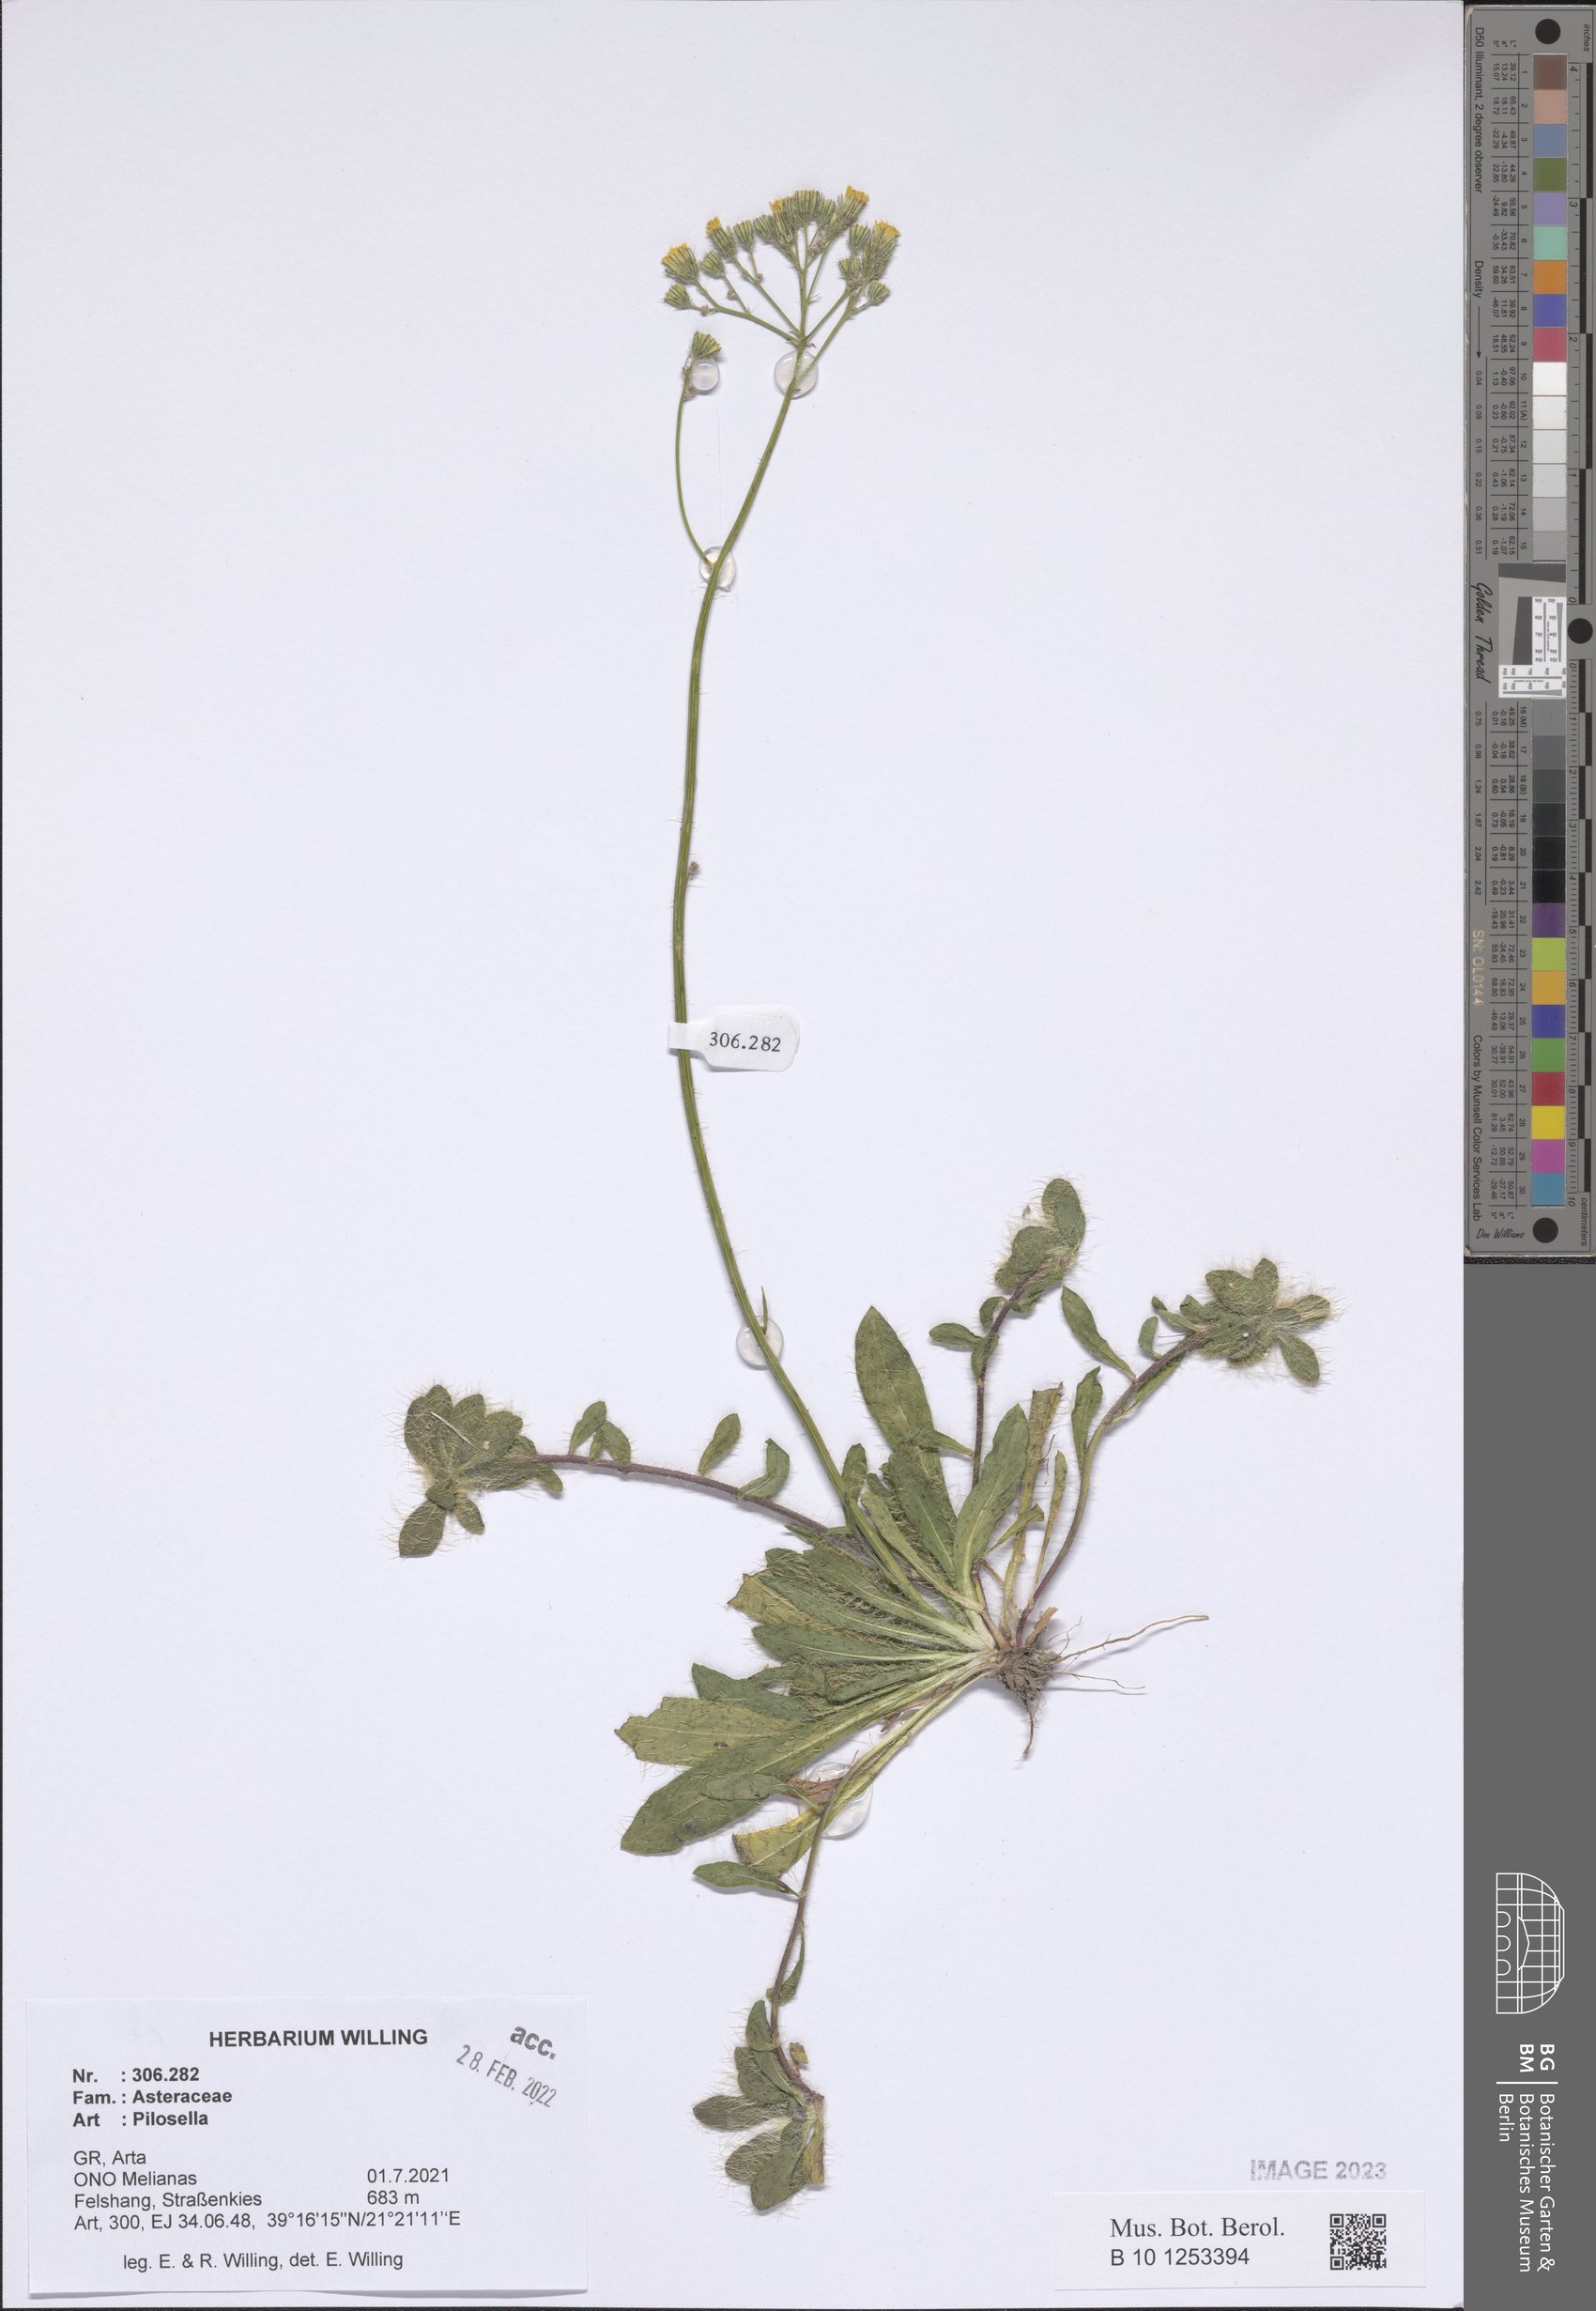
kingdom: Plantae
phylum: Tracheophyta
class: Magnoliopsida
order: Asterales
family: Asteraceae
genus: Pilosella
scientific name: Pilosella
